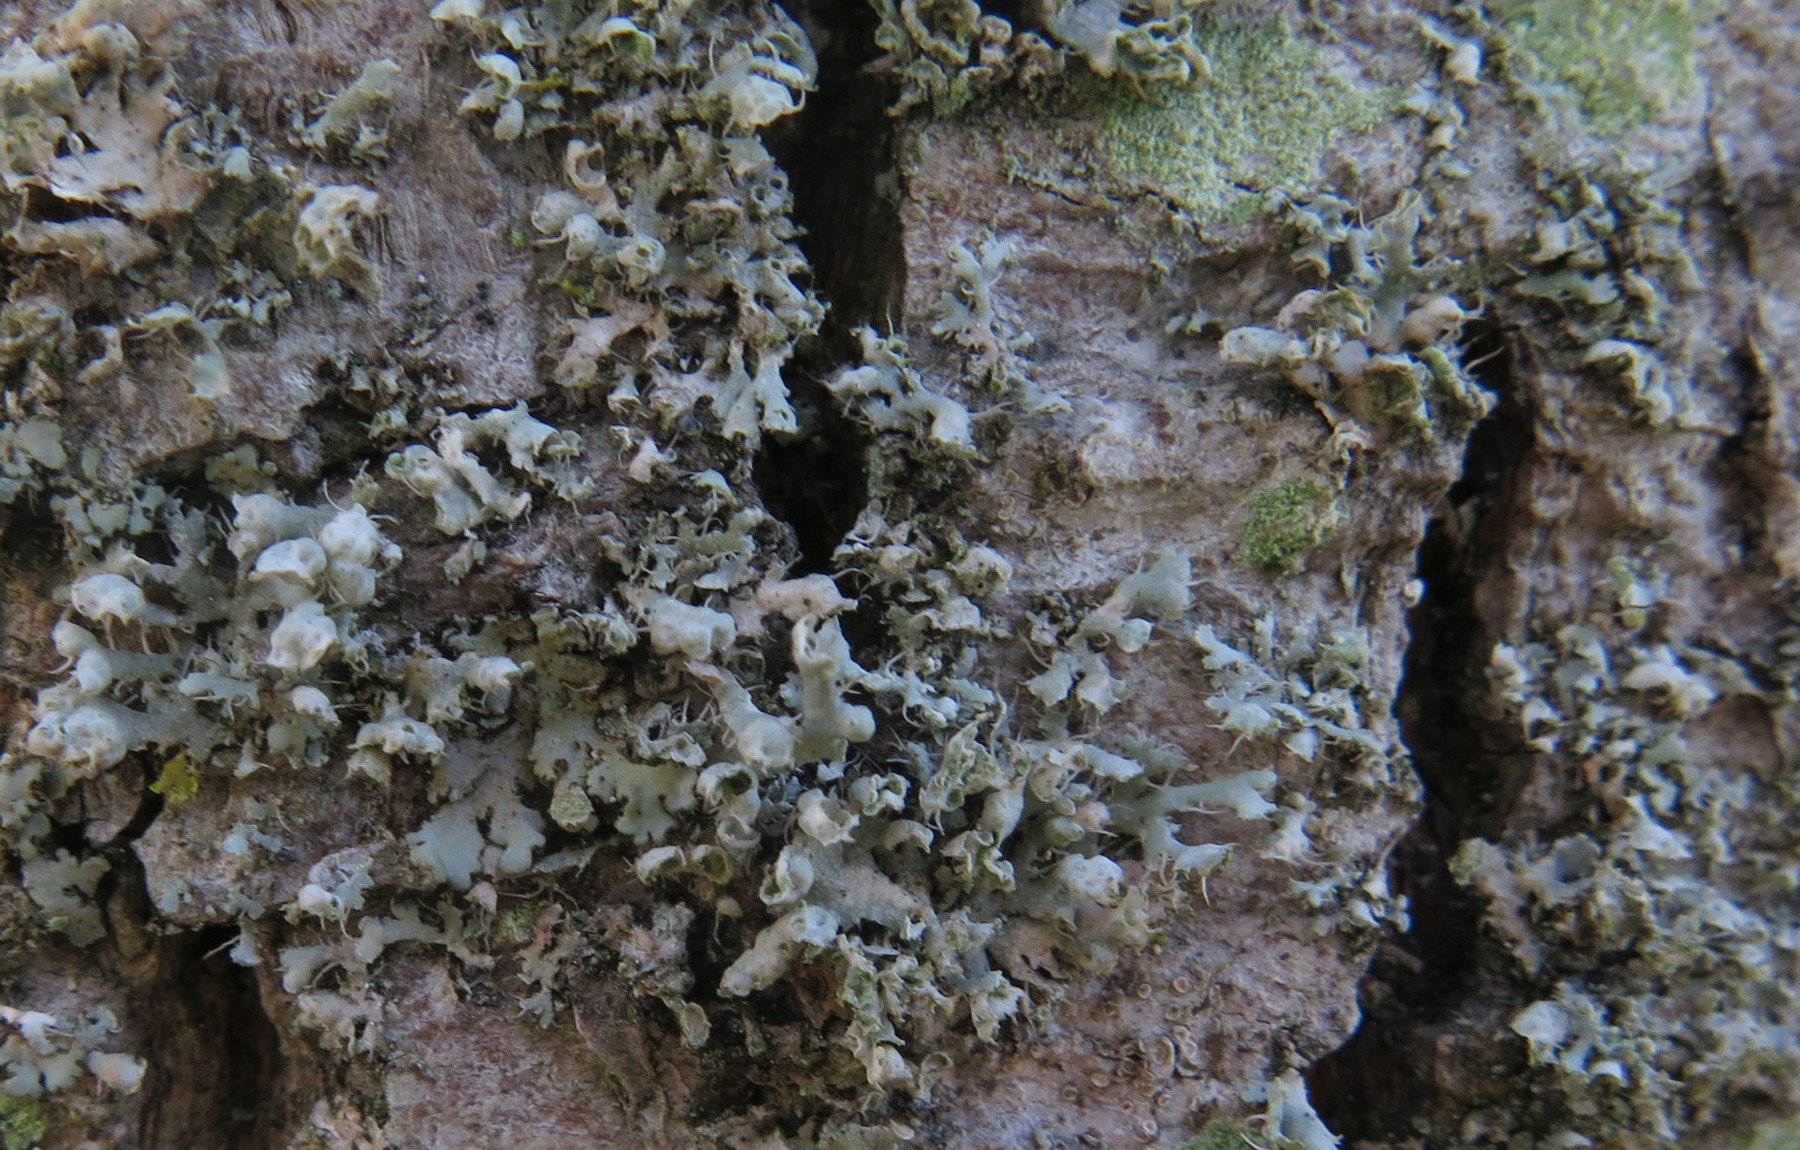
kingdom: Fungi
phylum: Ascomycota
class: Lecanoromycetes
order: Caliciales
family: Physciaceae
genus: Physcia
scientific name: Physcia adscendens
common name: hætte-rosetlav
